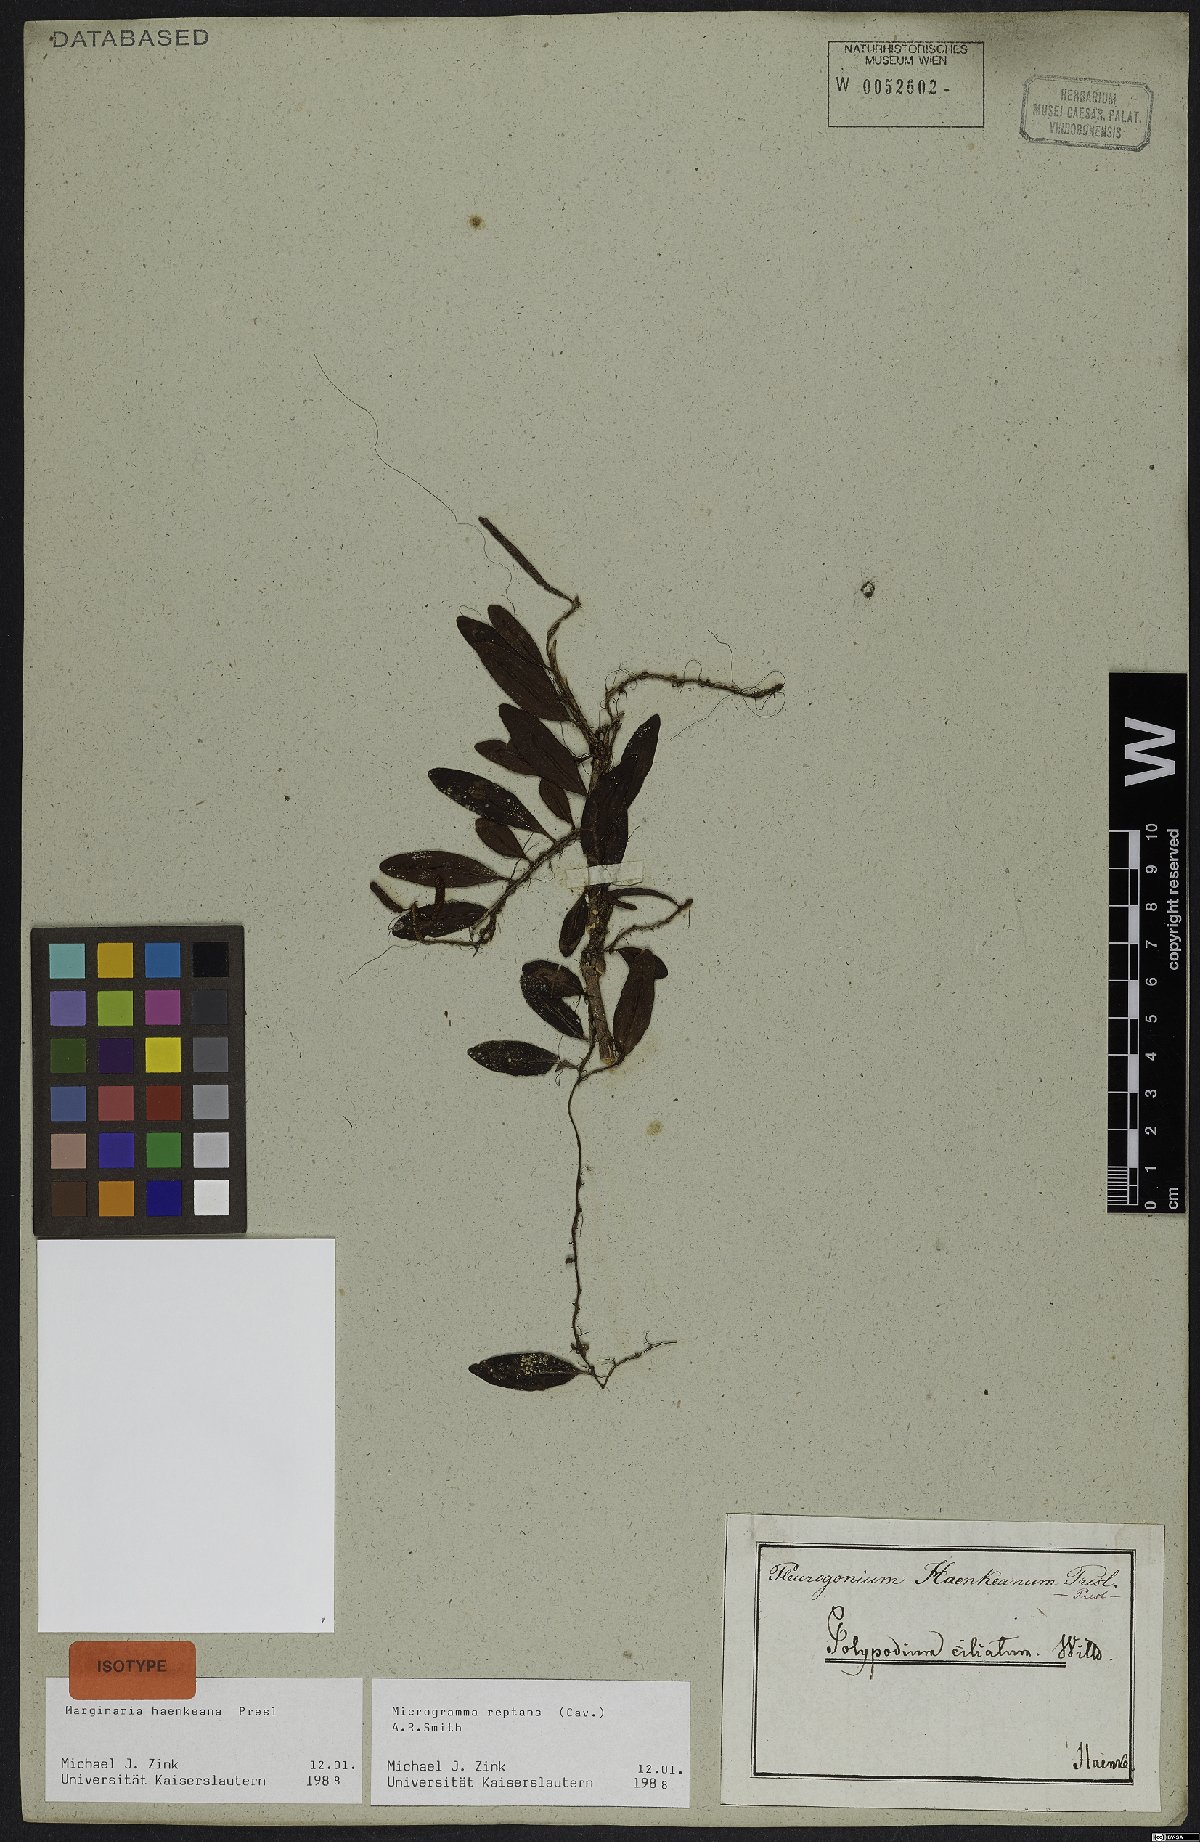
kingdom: Plantae
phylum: Tracheophyta
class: Polypodiopsida
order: Polypodiales
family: Polypodiaceae
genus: Microgramma
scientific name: Microgramma reptans
